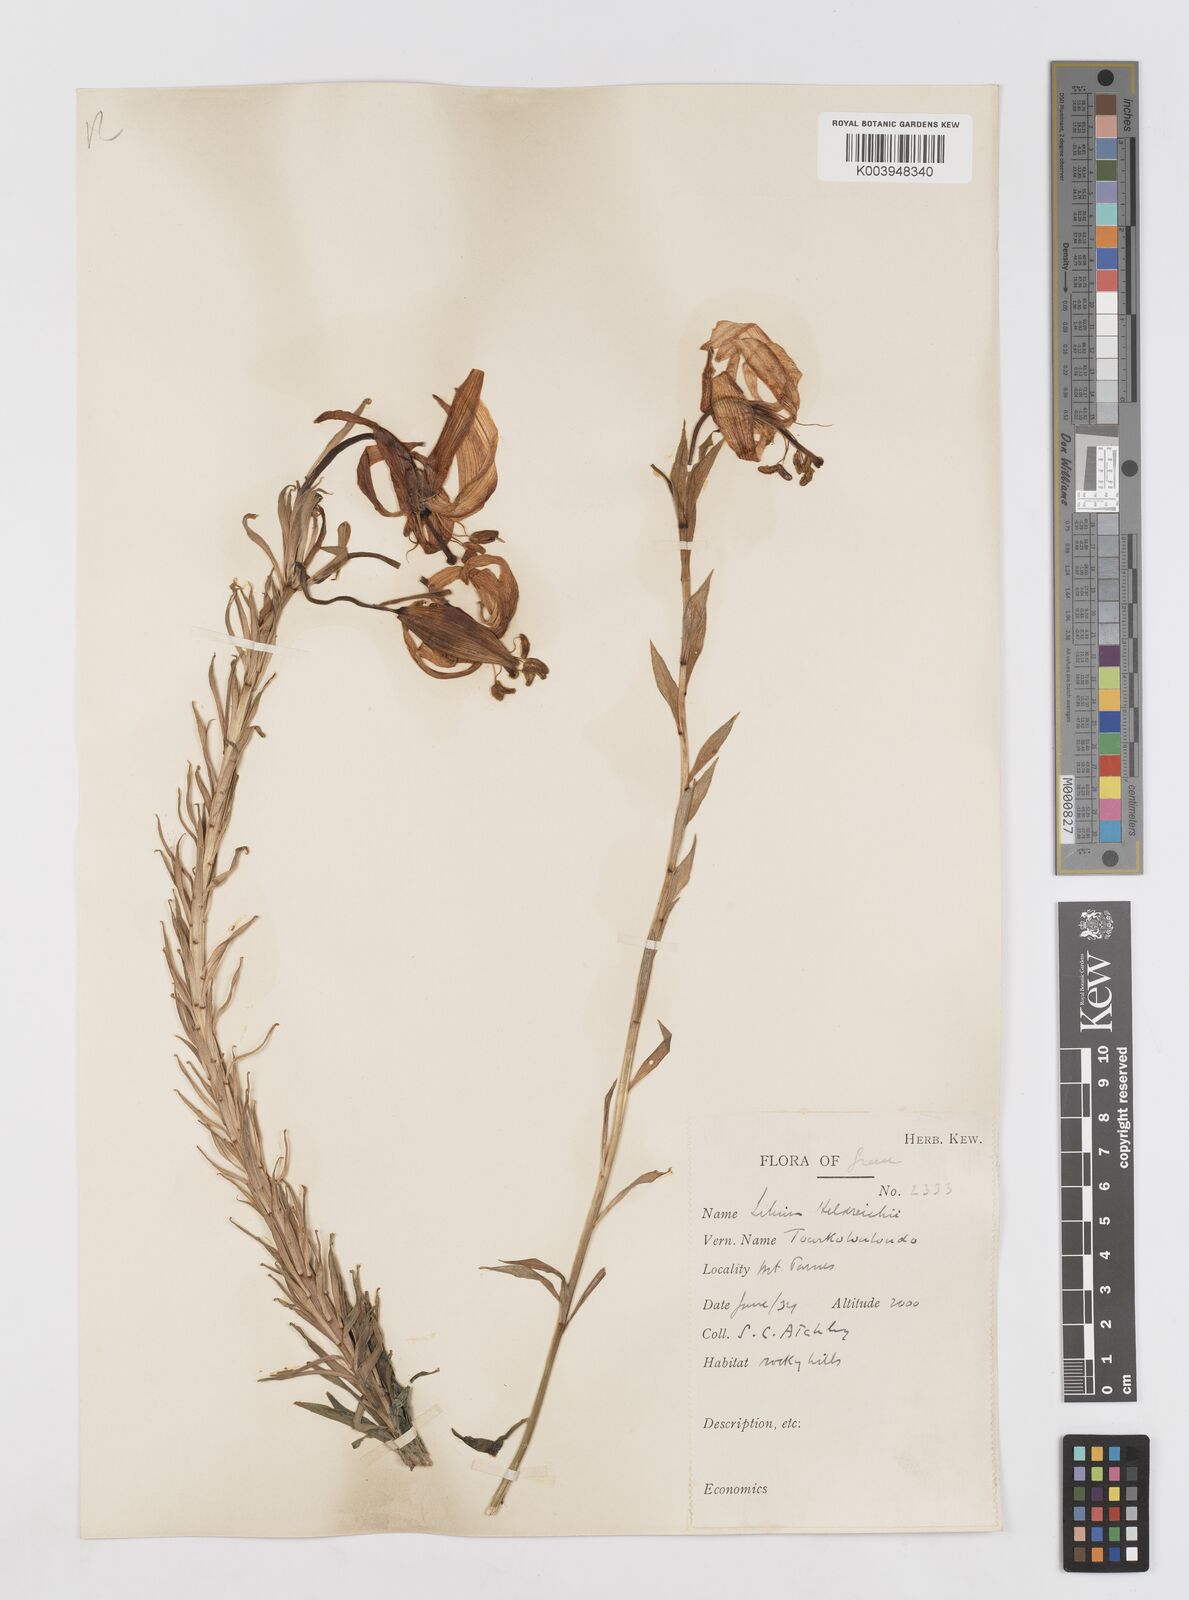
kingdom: Plantae
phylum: Tracheophyta
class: Liliopsida
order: Liliales
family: Liliaceae
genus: Lilium
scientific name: Lilium
